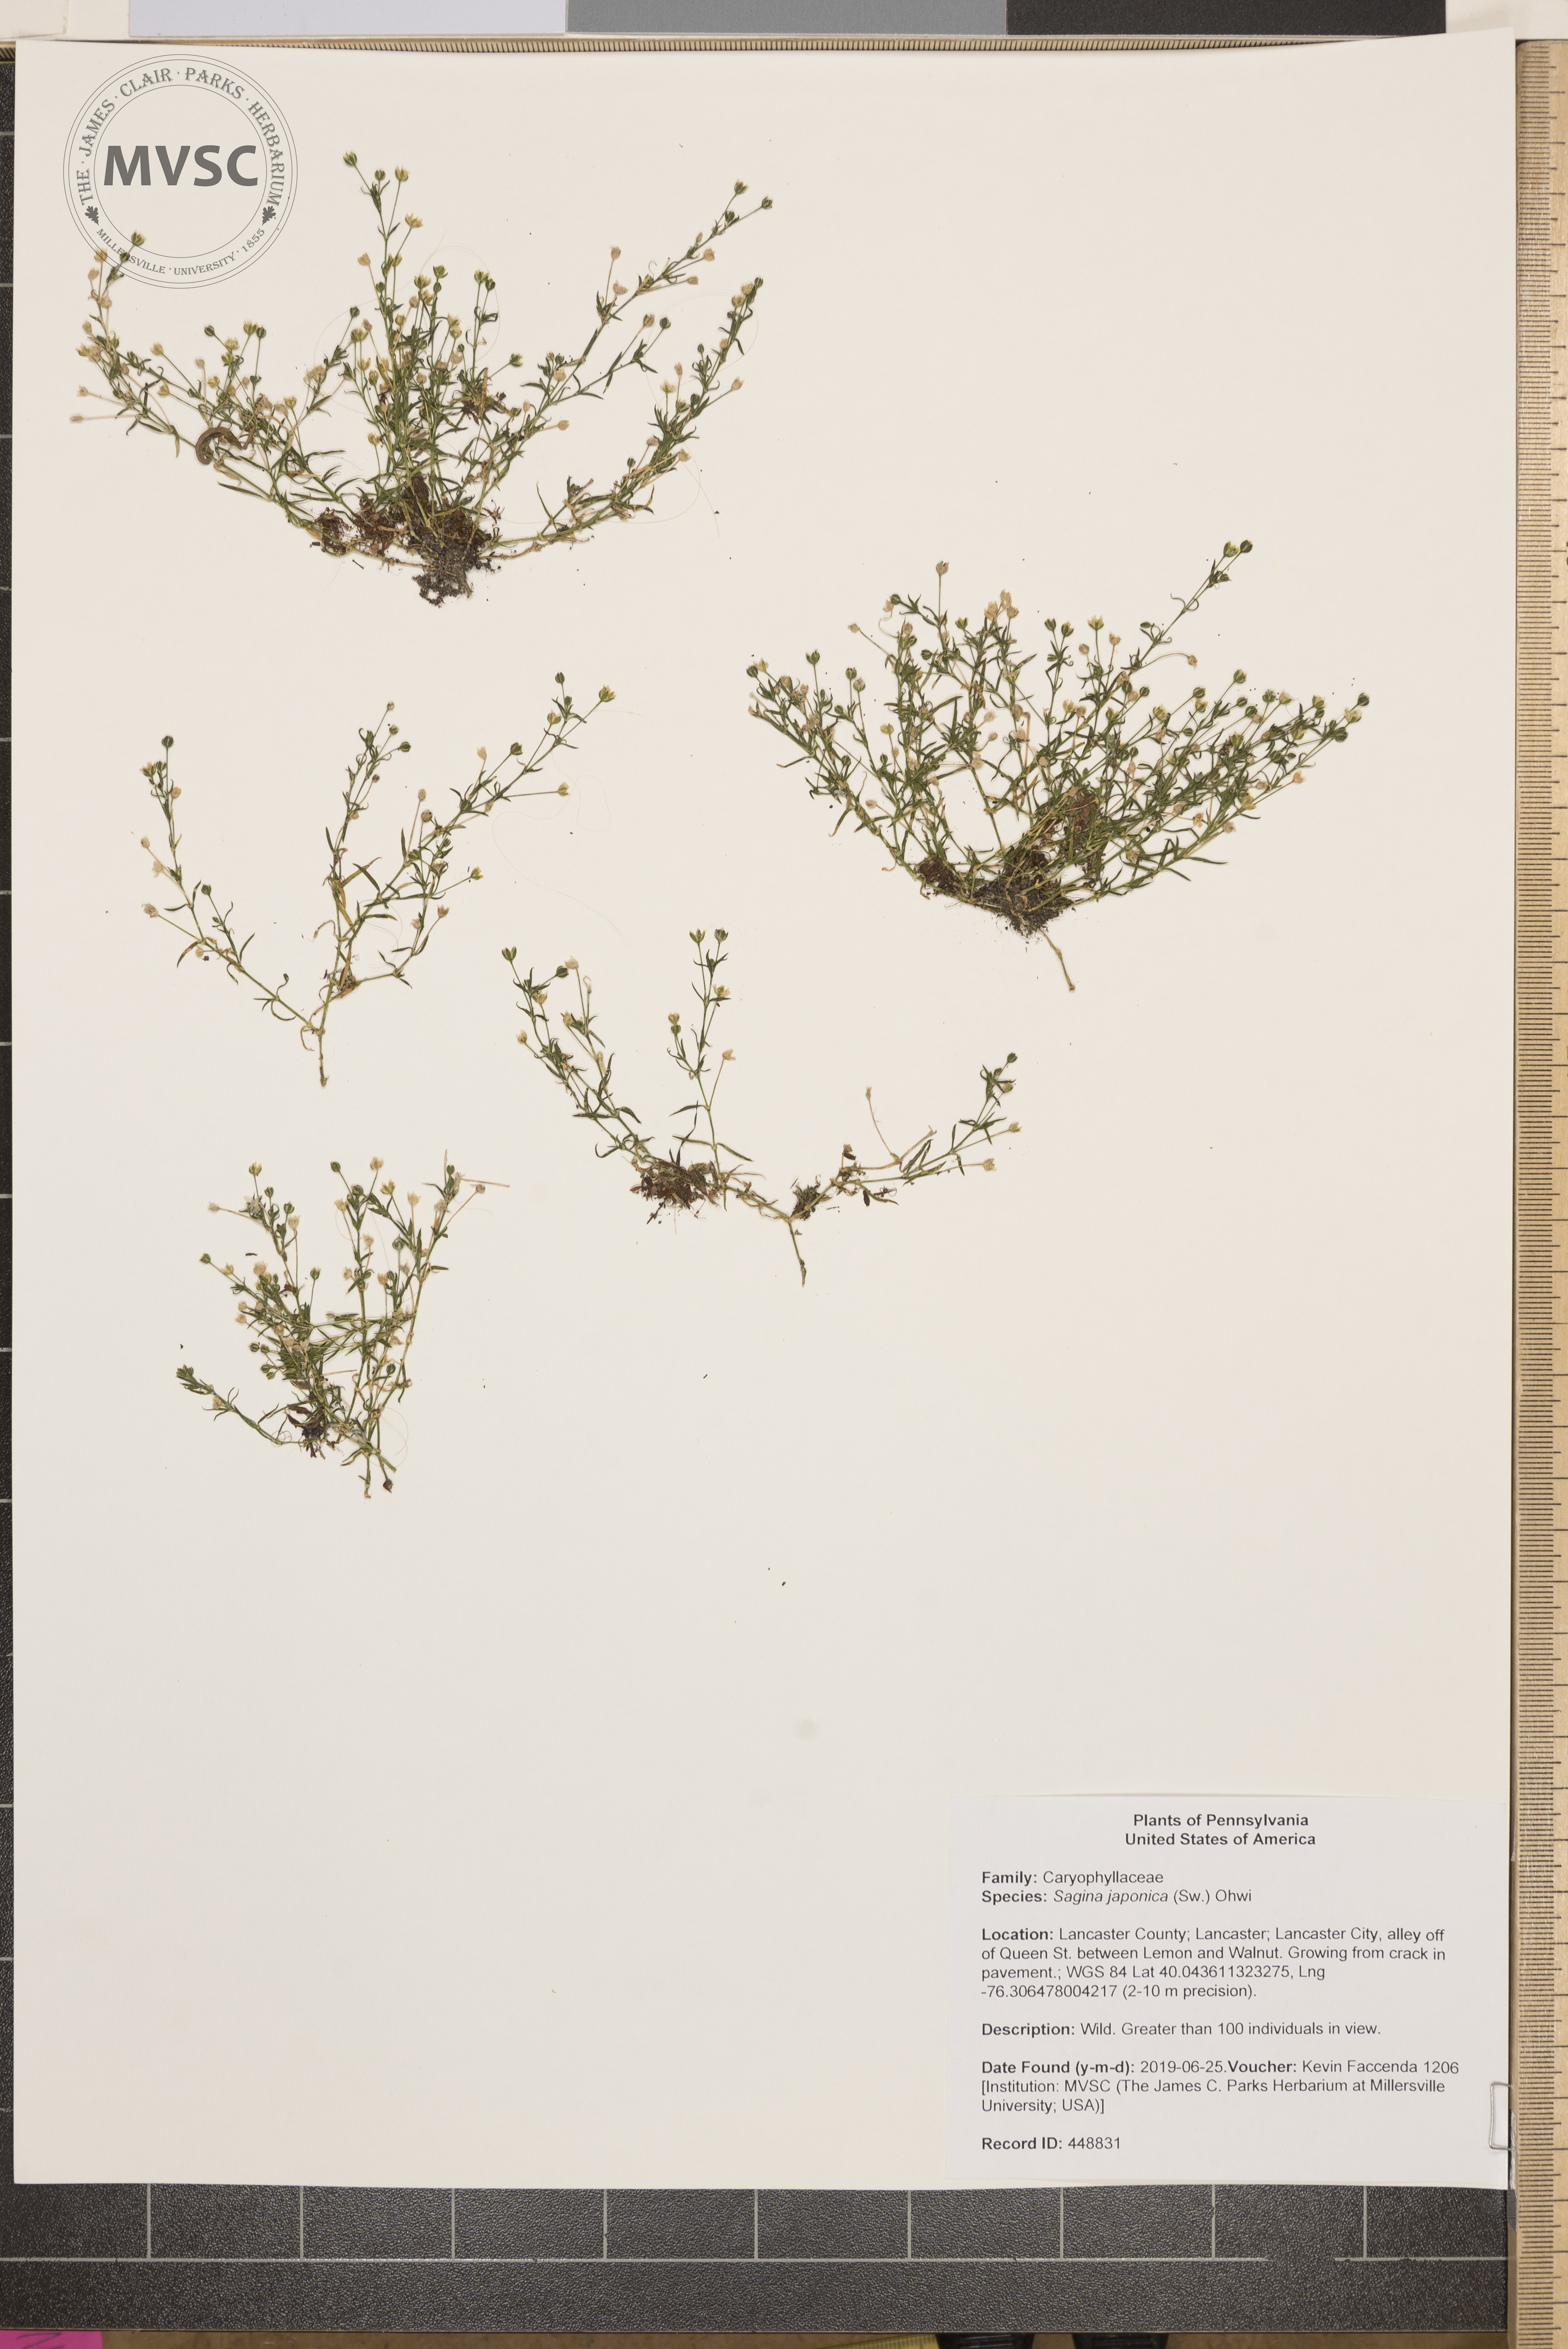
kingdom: Plantae
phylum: Tracheophyta
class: Magnoliopsida
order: Caryophyllales
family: Caryophyllaceae
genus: Sagina
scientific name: Sagina japonica
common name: Japanese pearlwort
